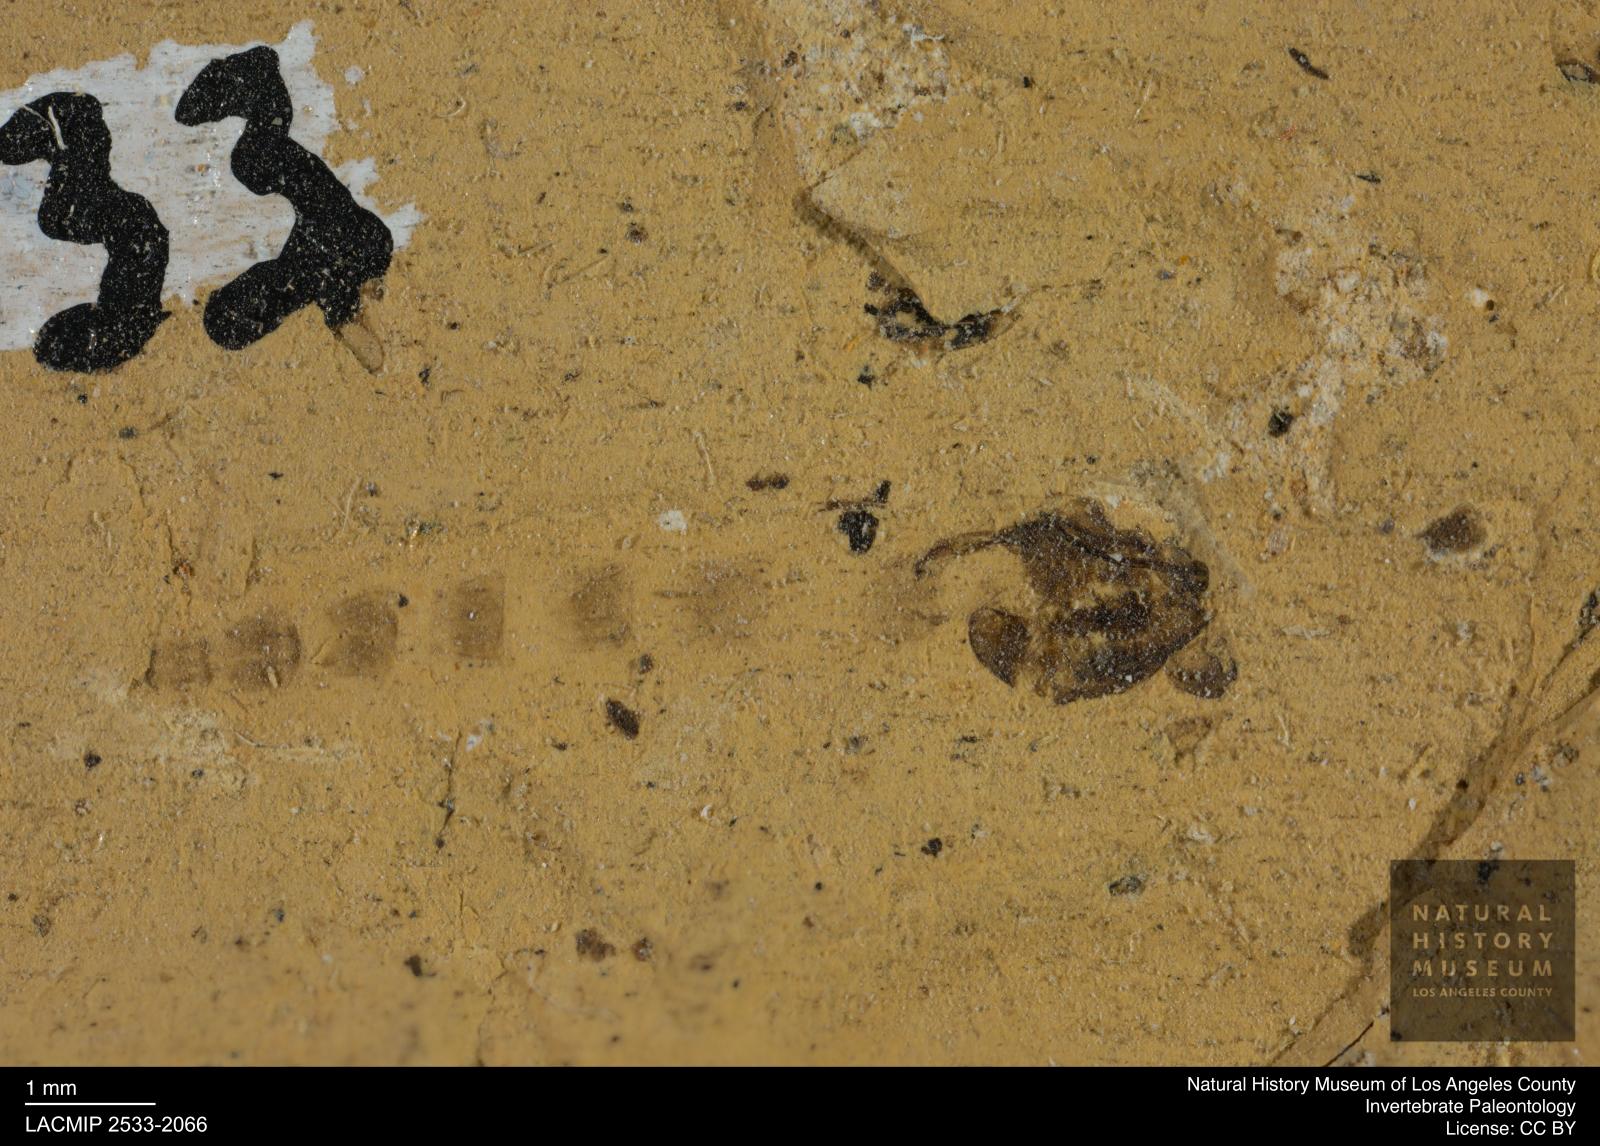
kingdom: Animalia
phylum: Arthropoda
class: Insecta
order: Diptera
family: Chironomidae
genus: Pelopiina
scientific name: Pelopiina
